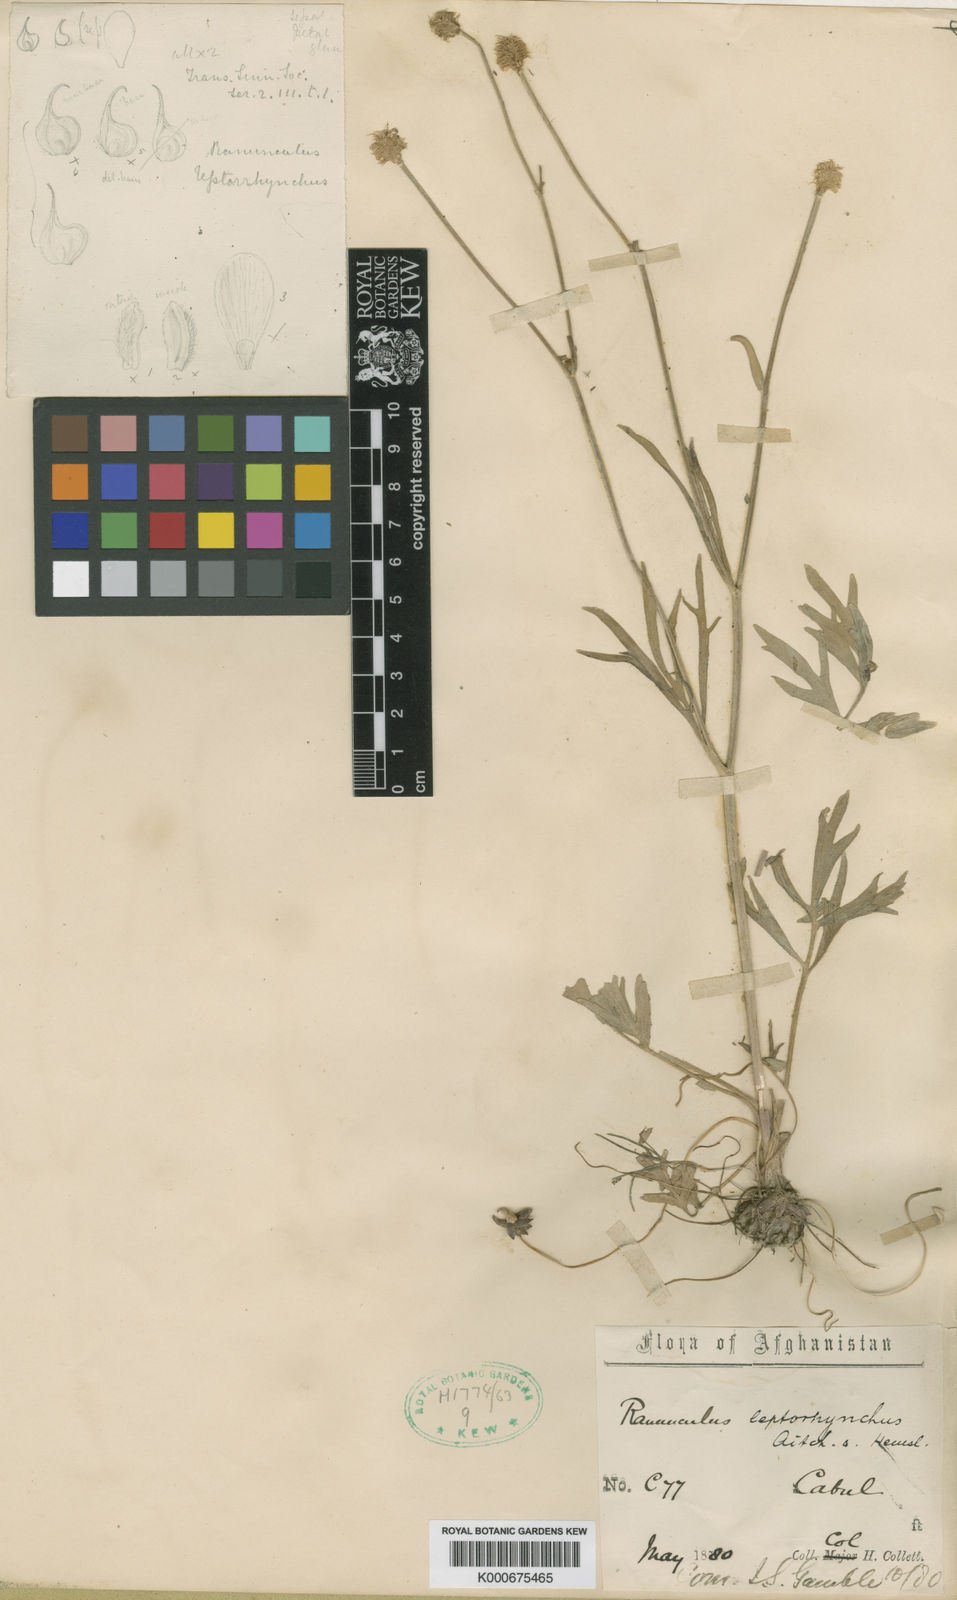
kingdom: Plantae
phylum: Tracheophyta
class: Magnoliopsida
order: Ranunculales
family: Ranunculaceae
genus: Ranunculus
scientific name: Ranunculus leptorrhynchus
